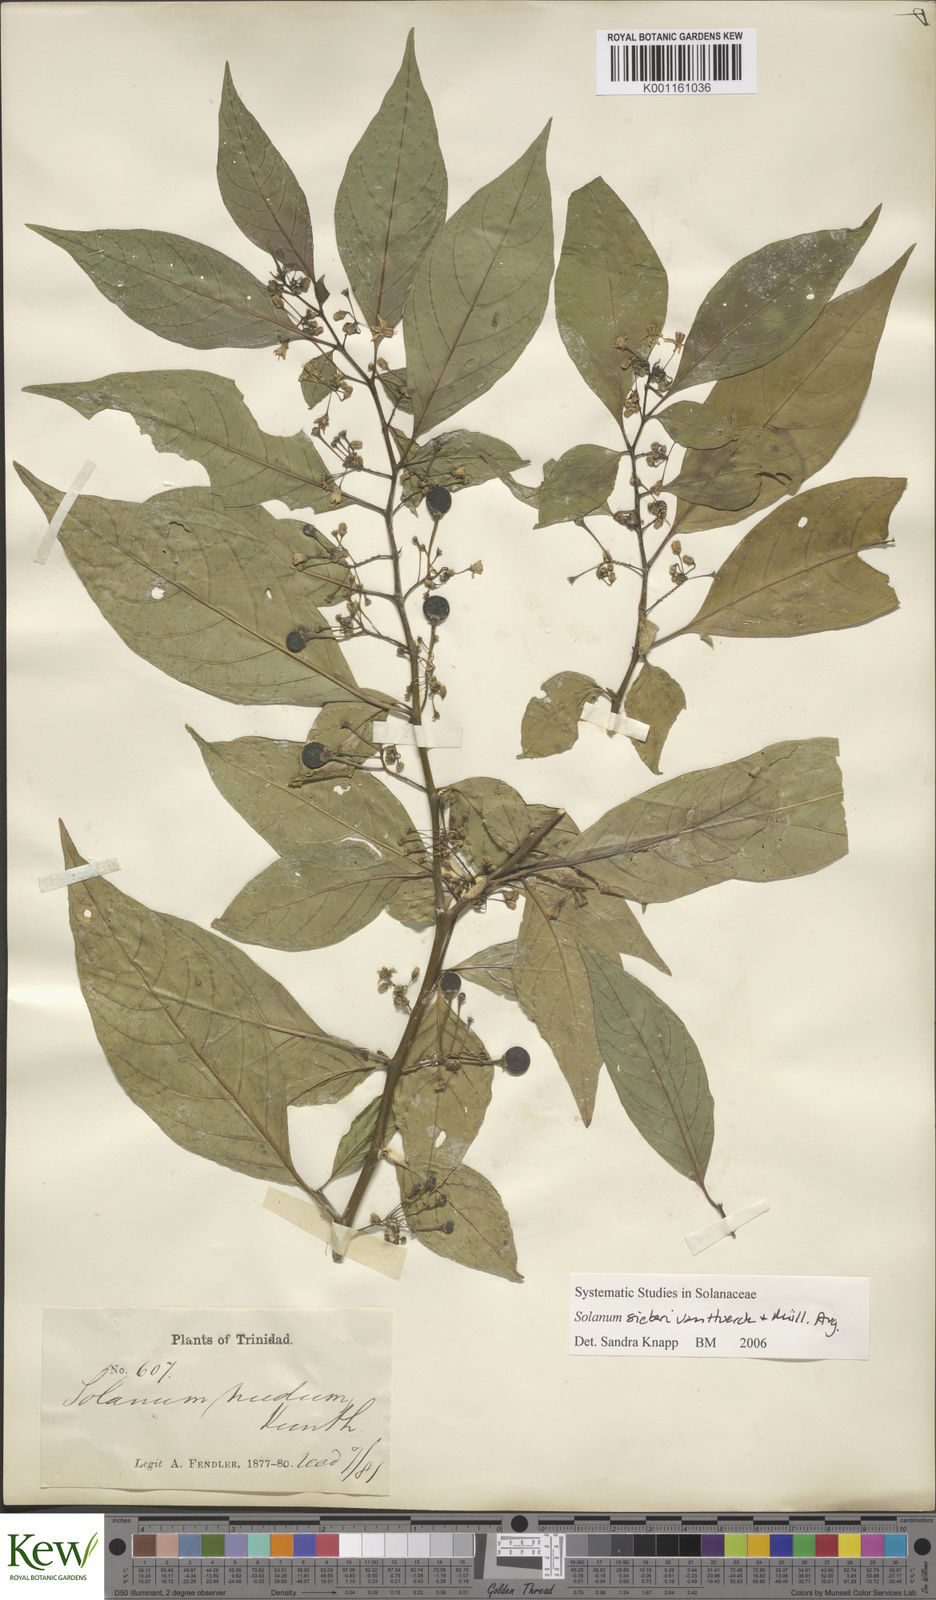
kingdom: Plantae
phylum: Tracheophyta
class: Magnoliopsida
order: Solanales
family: Solanaceae
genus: Solanum
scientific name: Solanum nudum
